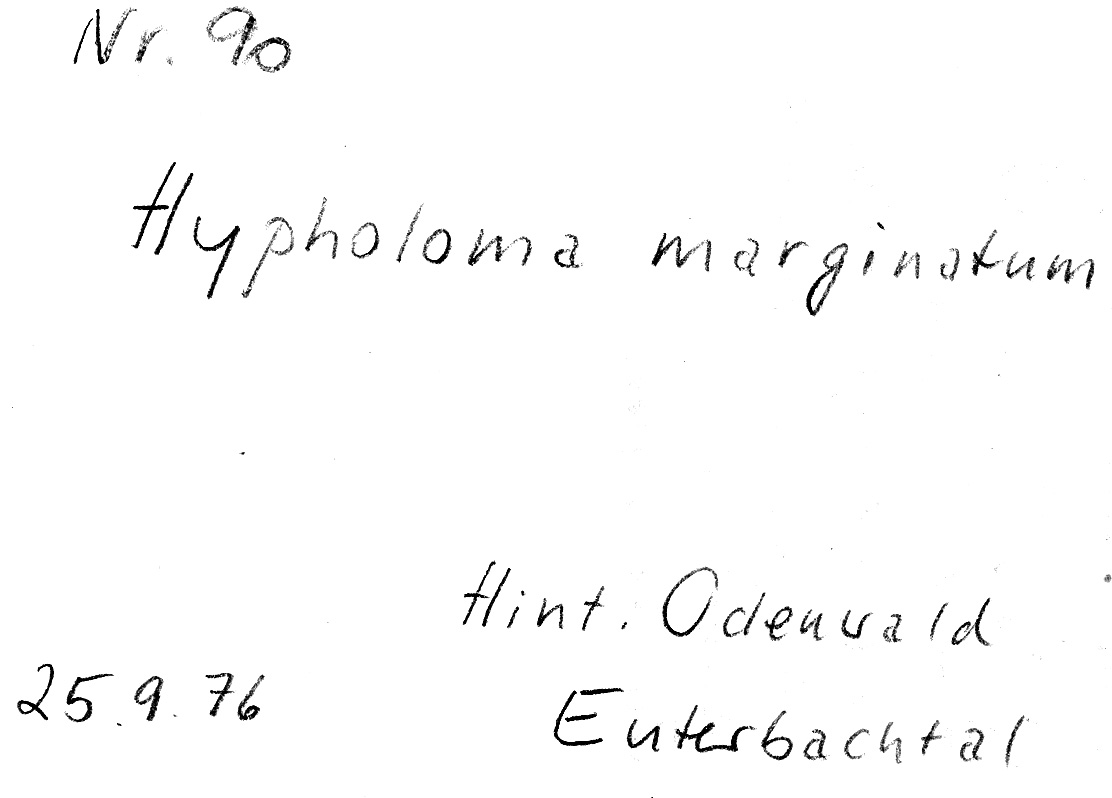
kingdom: Fungi
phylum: Basidiomycota
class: Agaricomycetes
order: Agaricales
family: Strophariaceae
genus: Hypholoma
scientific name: Hypholoma marginatum
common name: Snakeskin brownie
